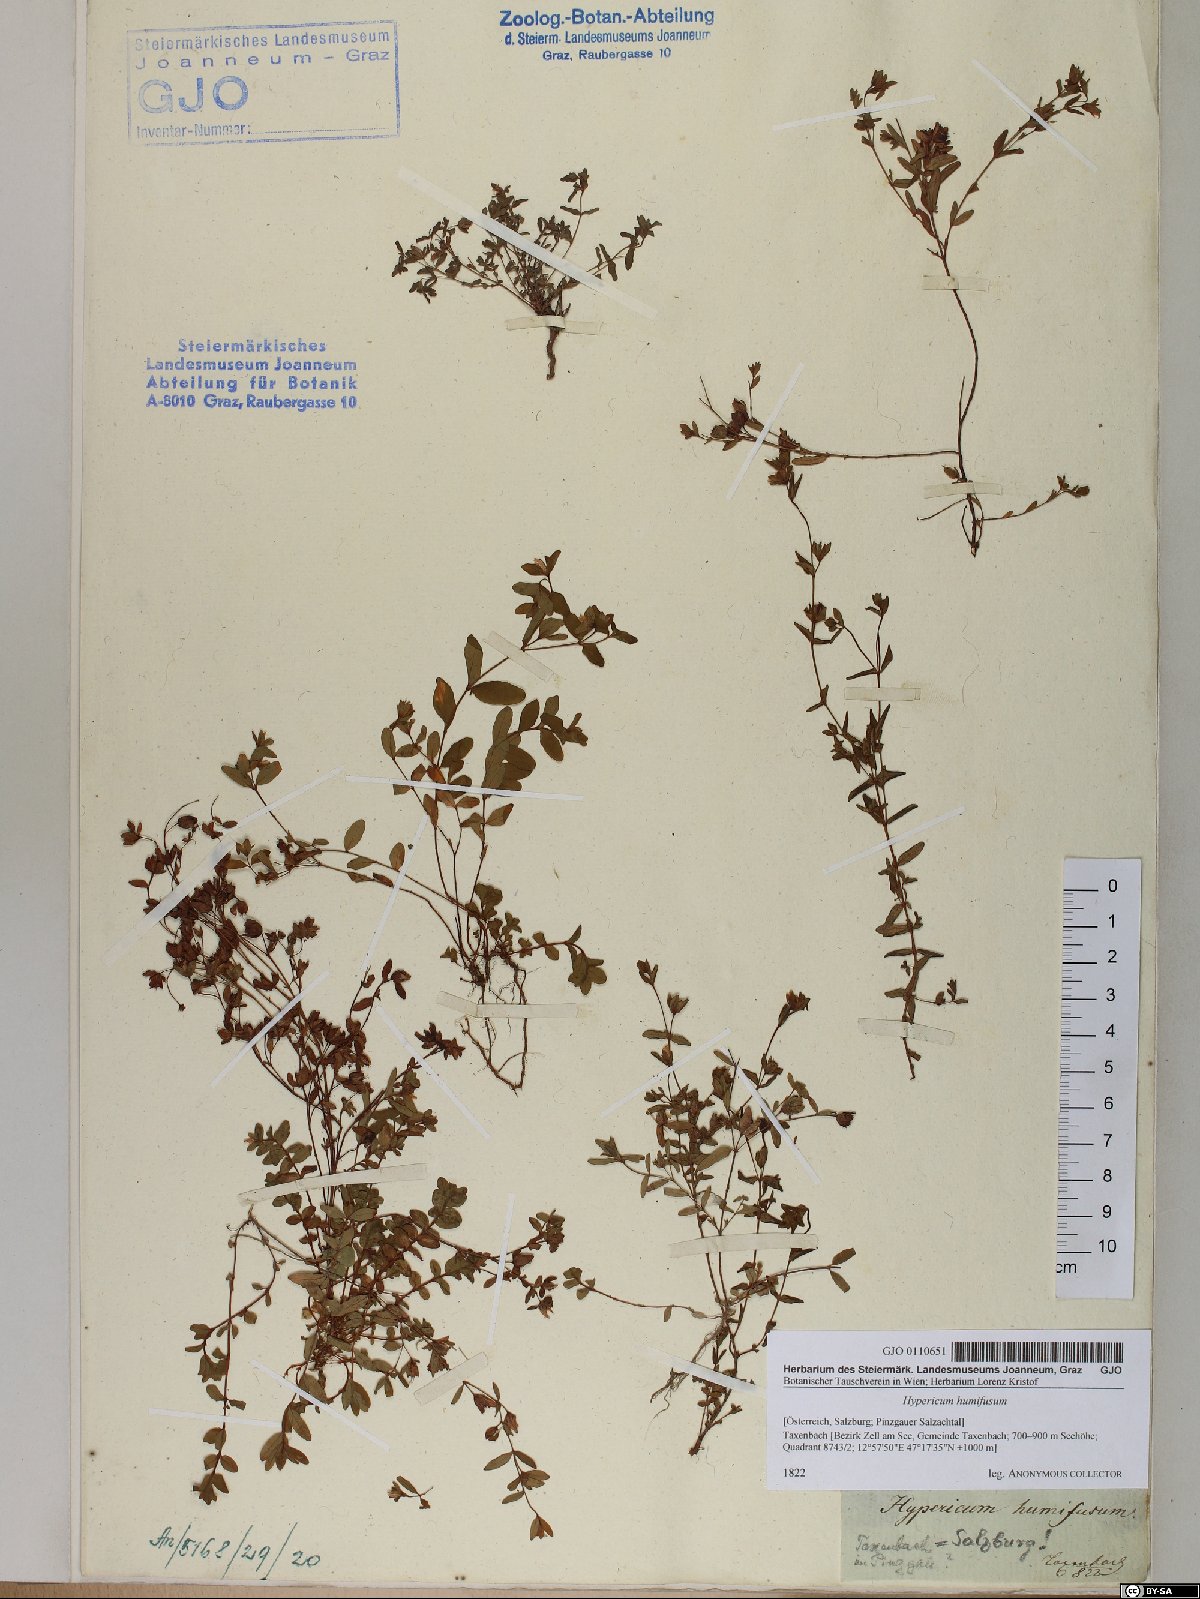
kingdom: Plantae
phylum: Tracheophyta
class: Magnoliopsida
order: Malpighiales
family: Hypericaceae
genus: Hypericum
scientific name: Hypericum humifusum
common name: Trailing st. john's-wort
